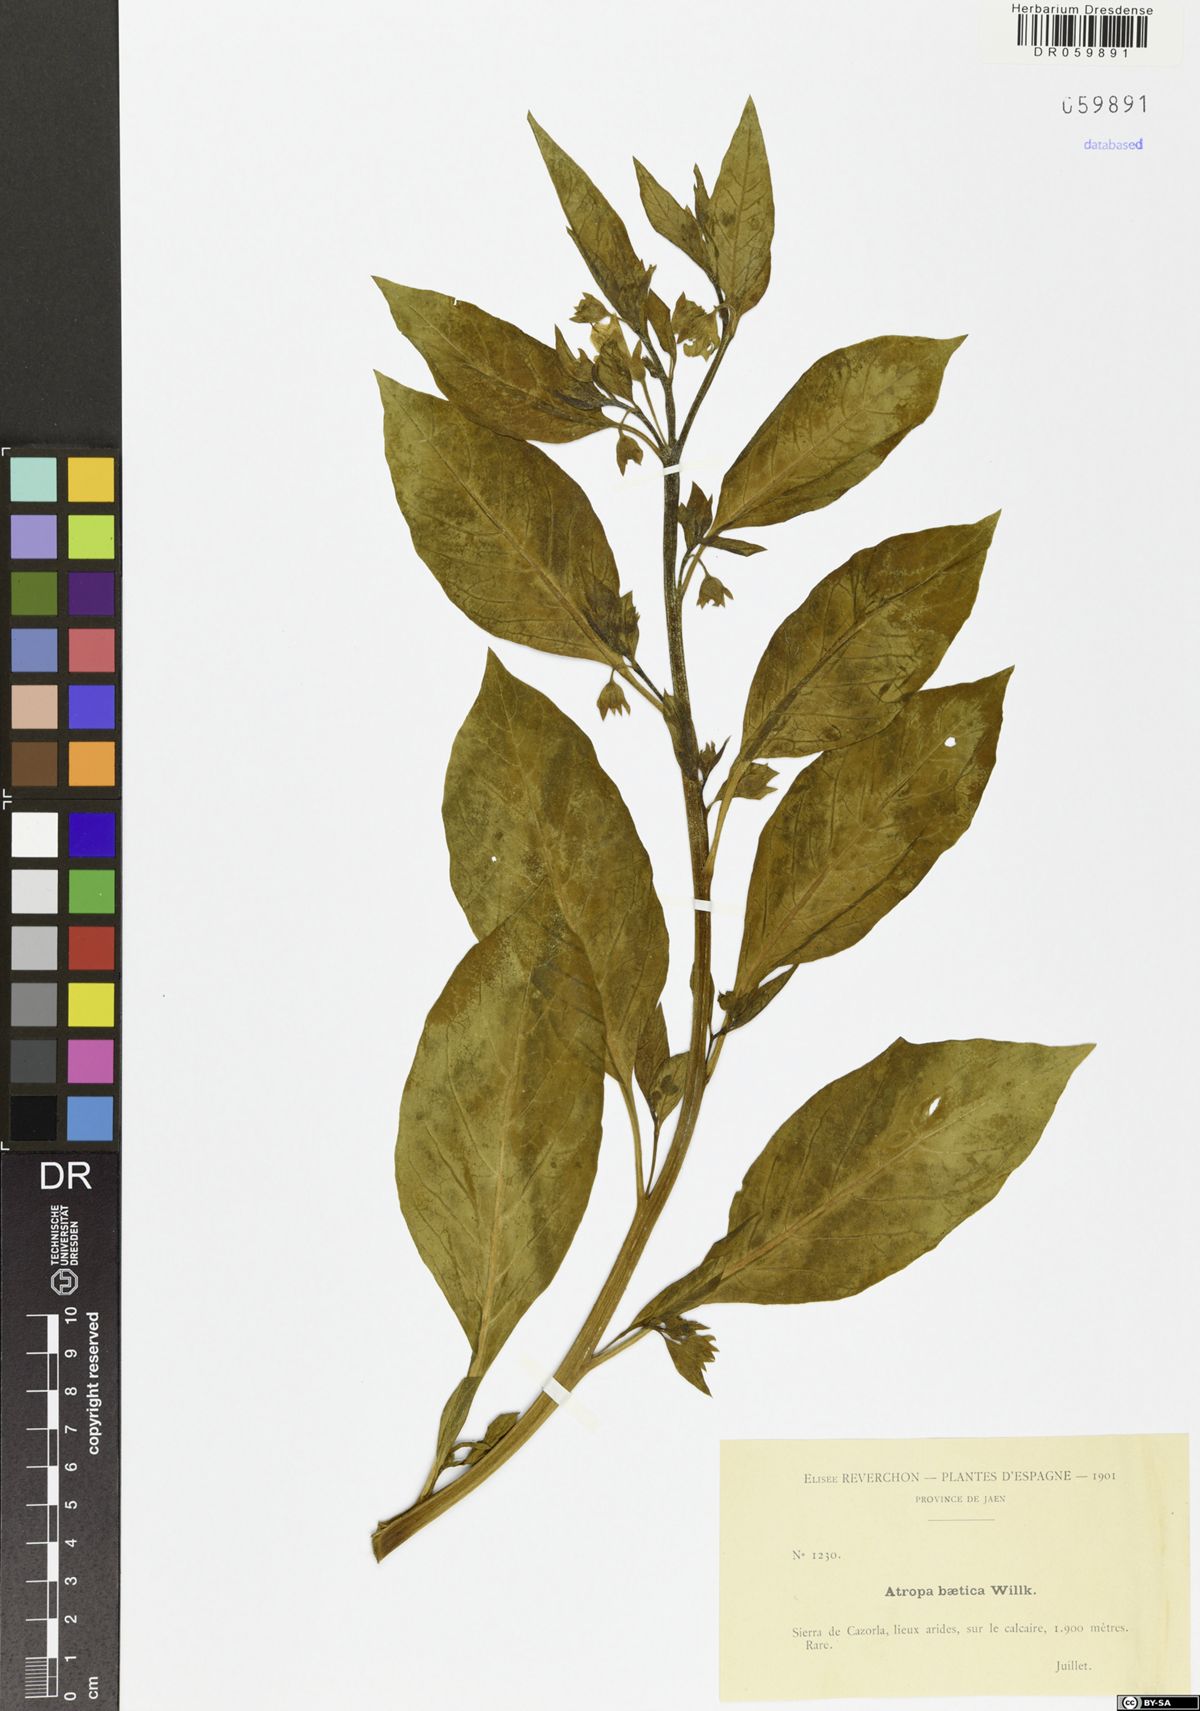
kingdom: Plantae
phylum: Tracheophyta
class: Magnoliopsida
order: Solanales
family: Solanaceae
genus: Atropa
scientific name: Atropa baetica
